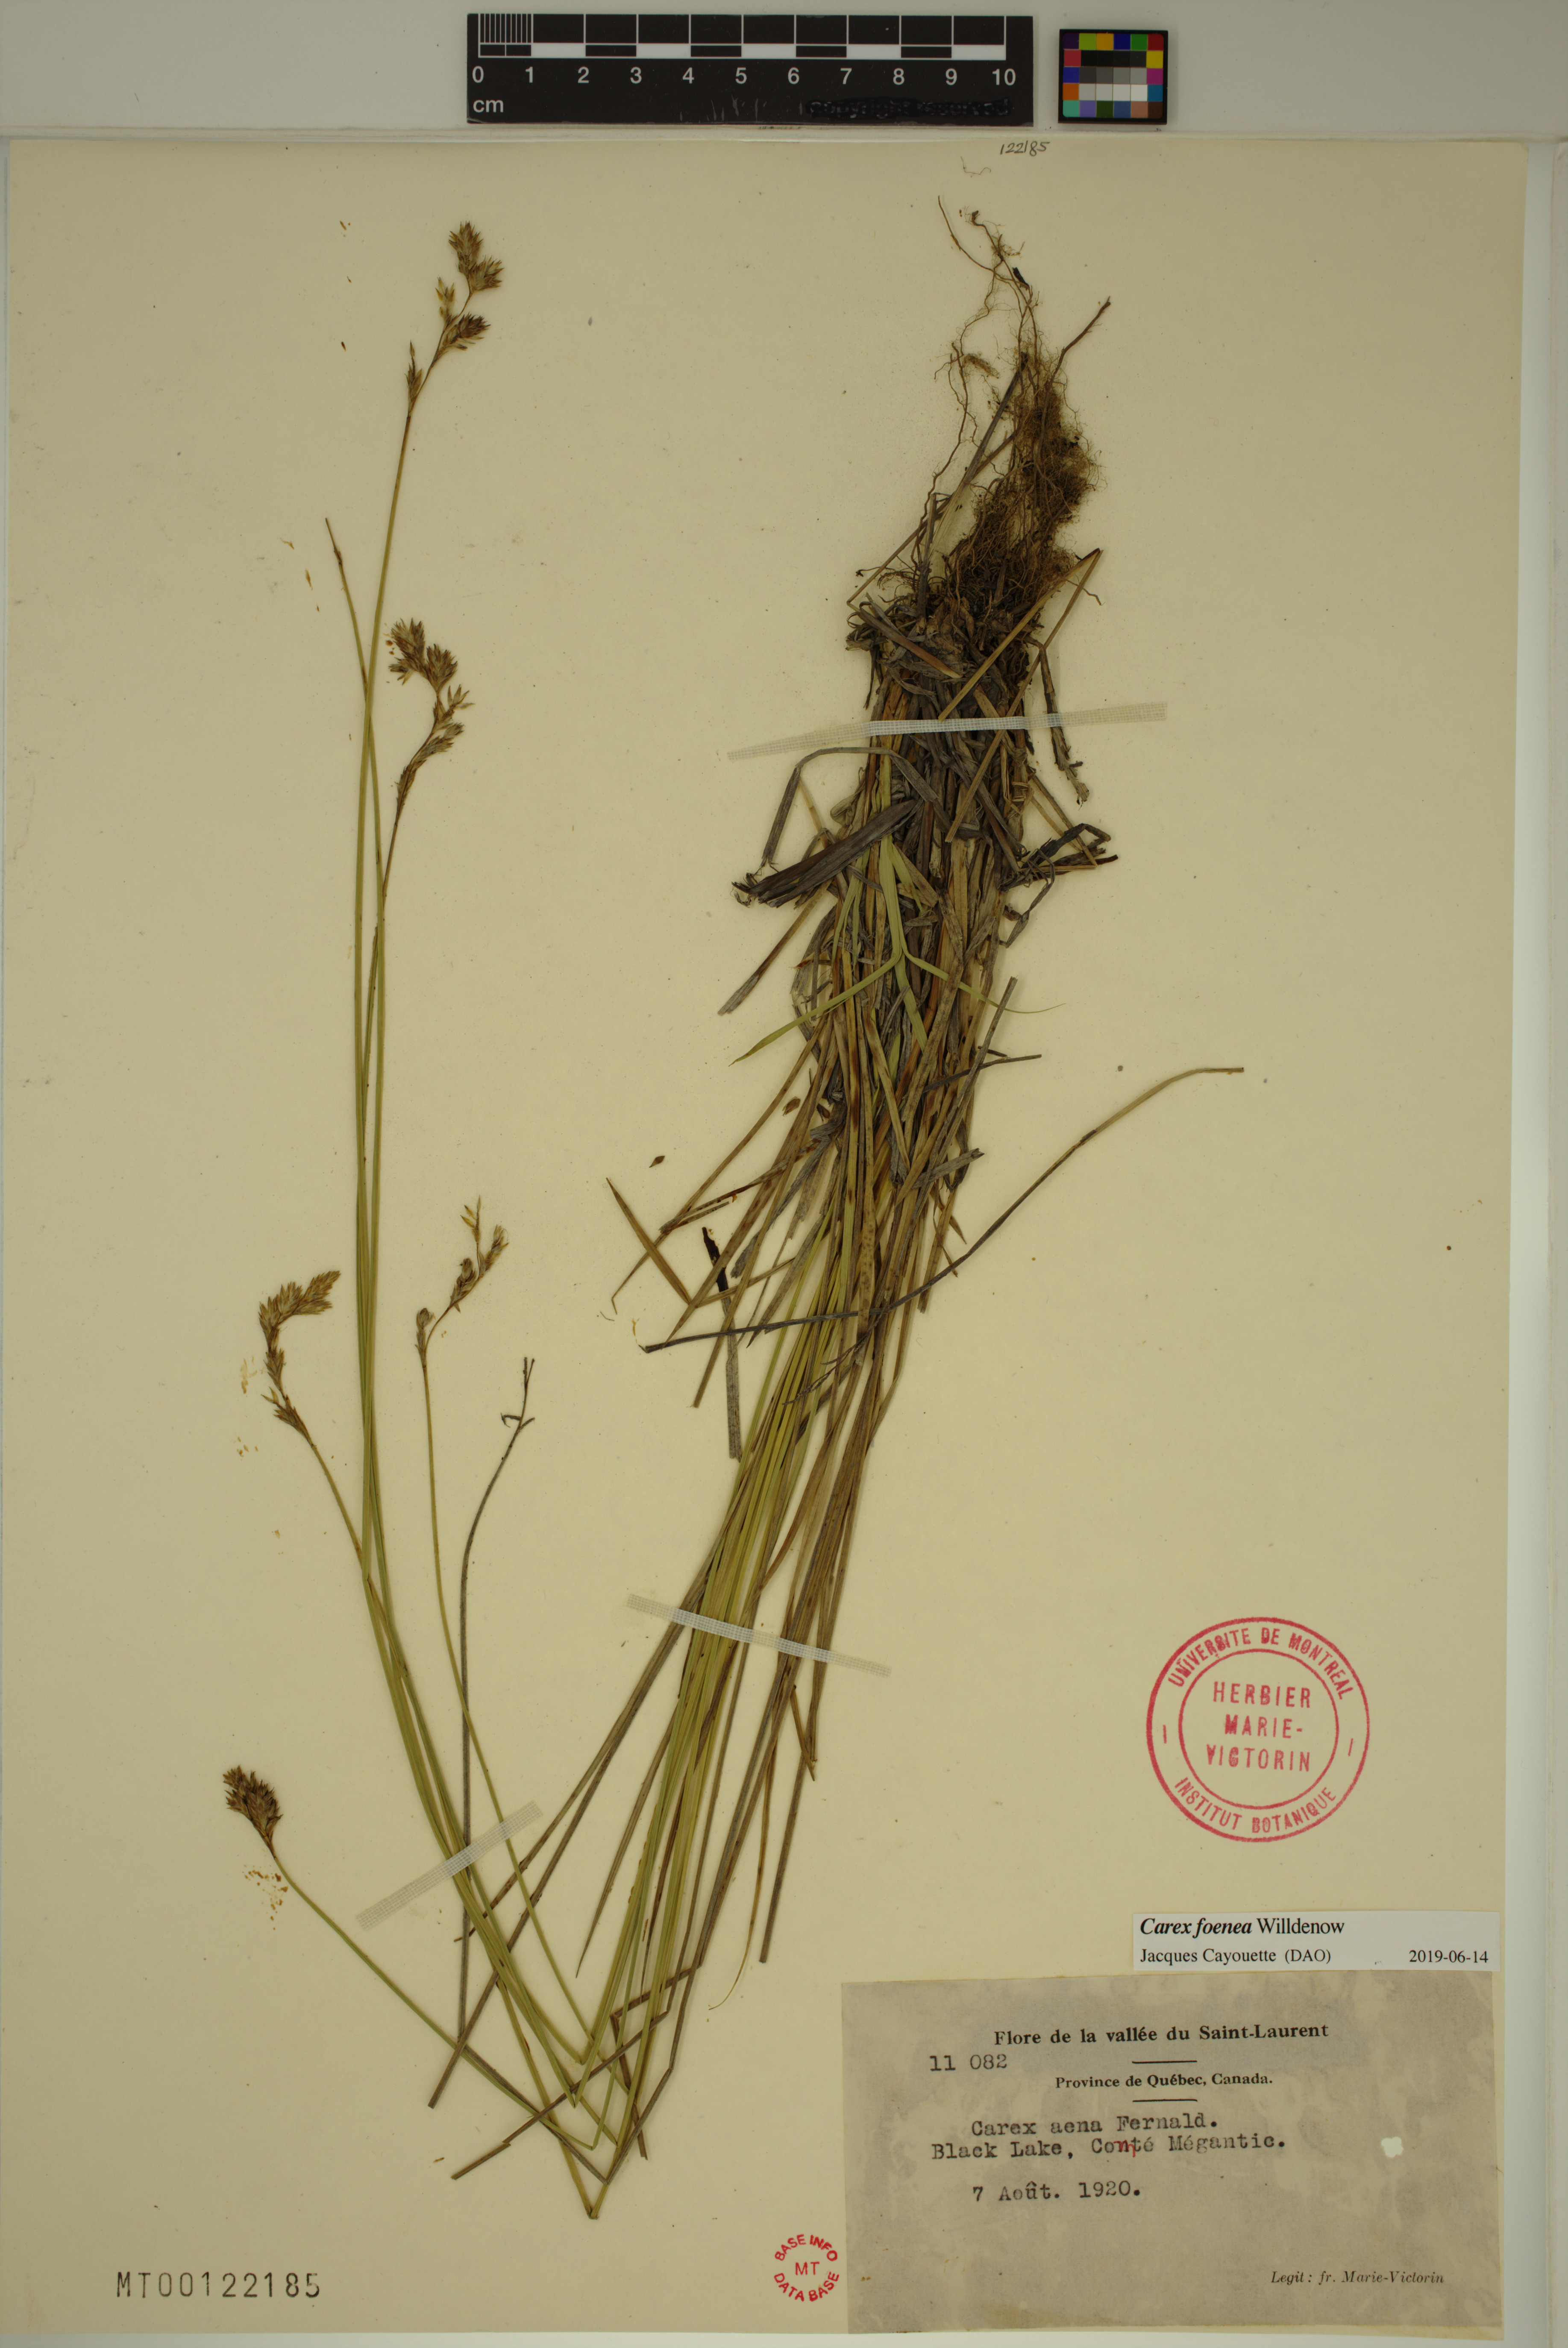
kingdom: Plantae
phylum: Tracheophyta
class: Liliopsida
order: Poales
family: Cyperaceae
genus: Carex
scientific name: Carex foenea
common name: Bronze sedge
